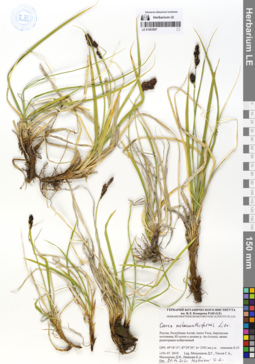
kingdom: Plantae
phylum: Tracheophyta
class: Liliopsida
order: Poales
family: Cyperaceae
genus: Carex
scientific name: Carex melananthiformis
